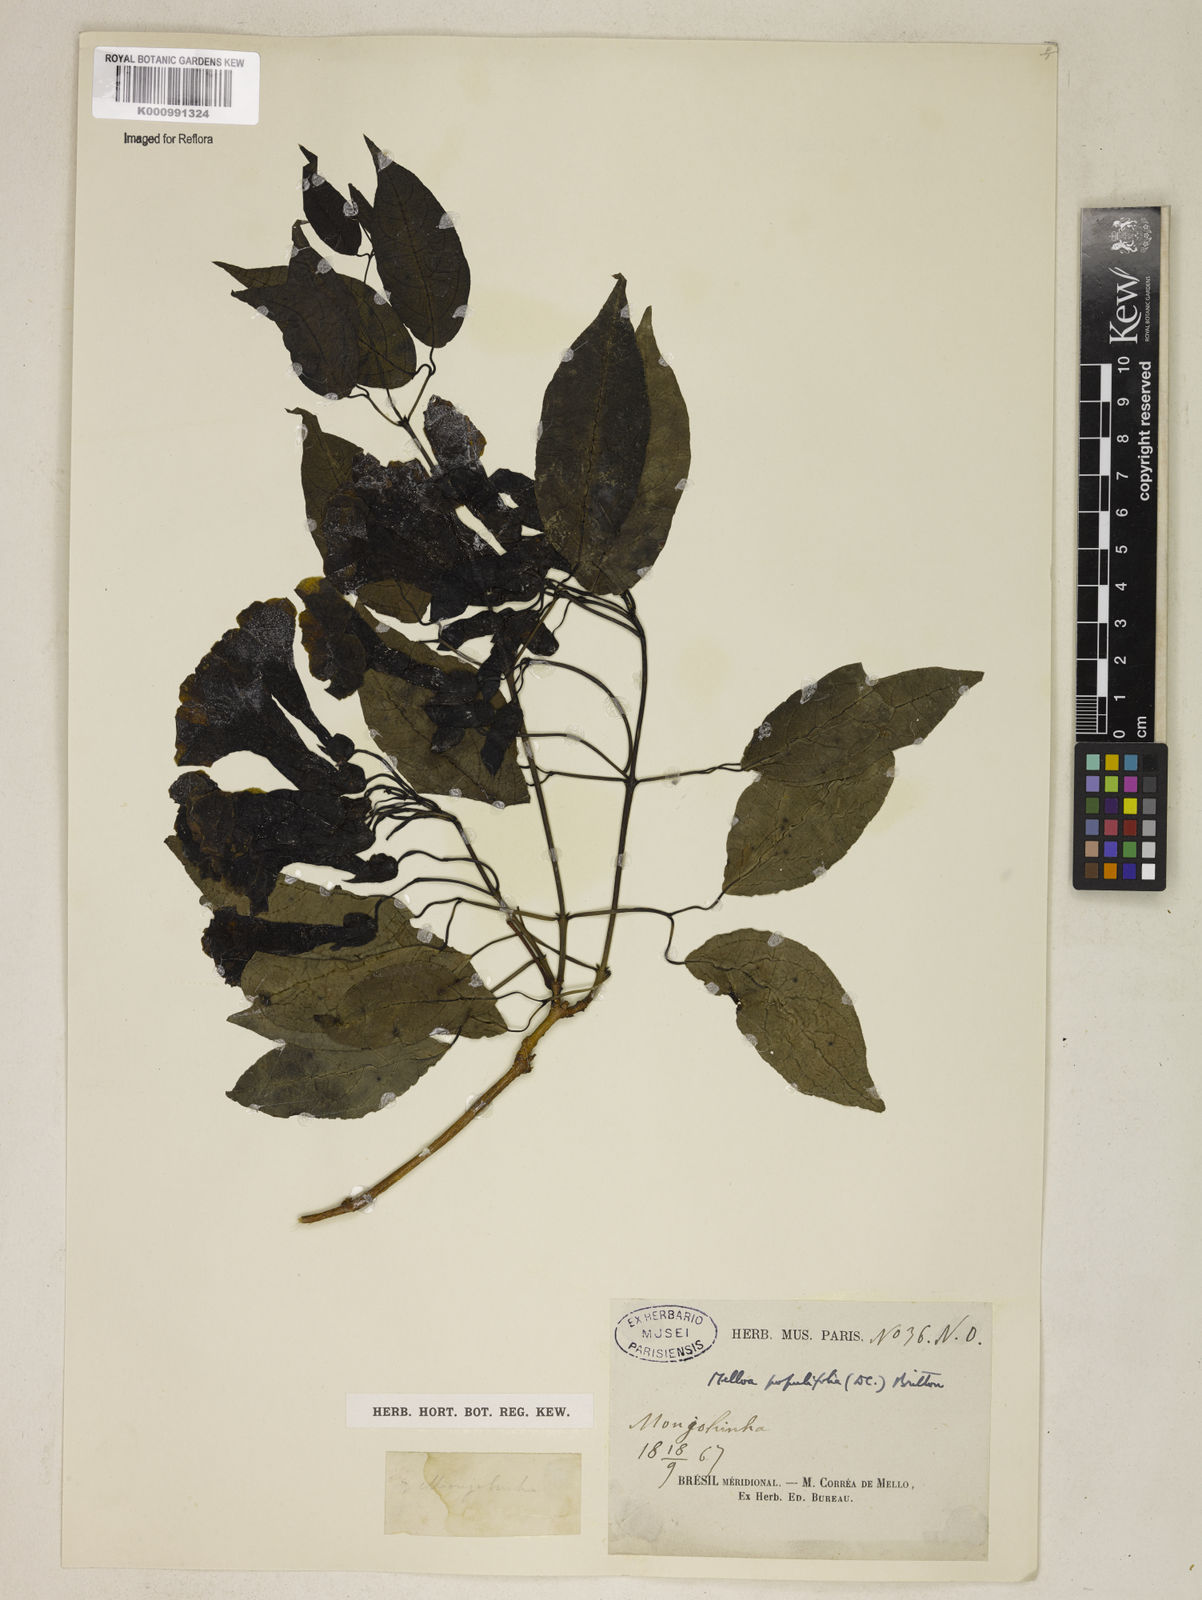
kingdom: Plantae
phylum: Tracheophyta
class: Magnoliopsida
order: Lamiales
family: Bignoniaceae
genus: Dolichandra
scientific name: Dolichandra quadrivalvis
